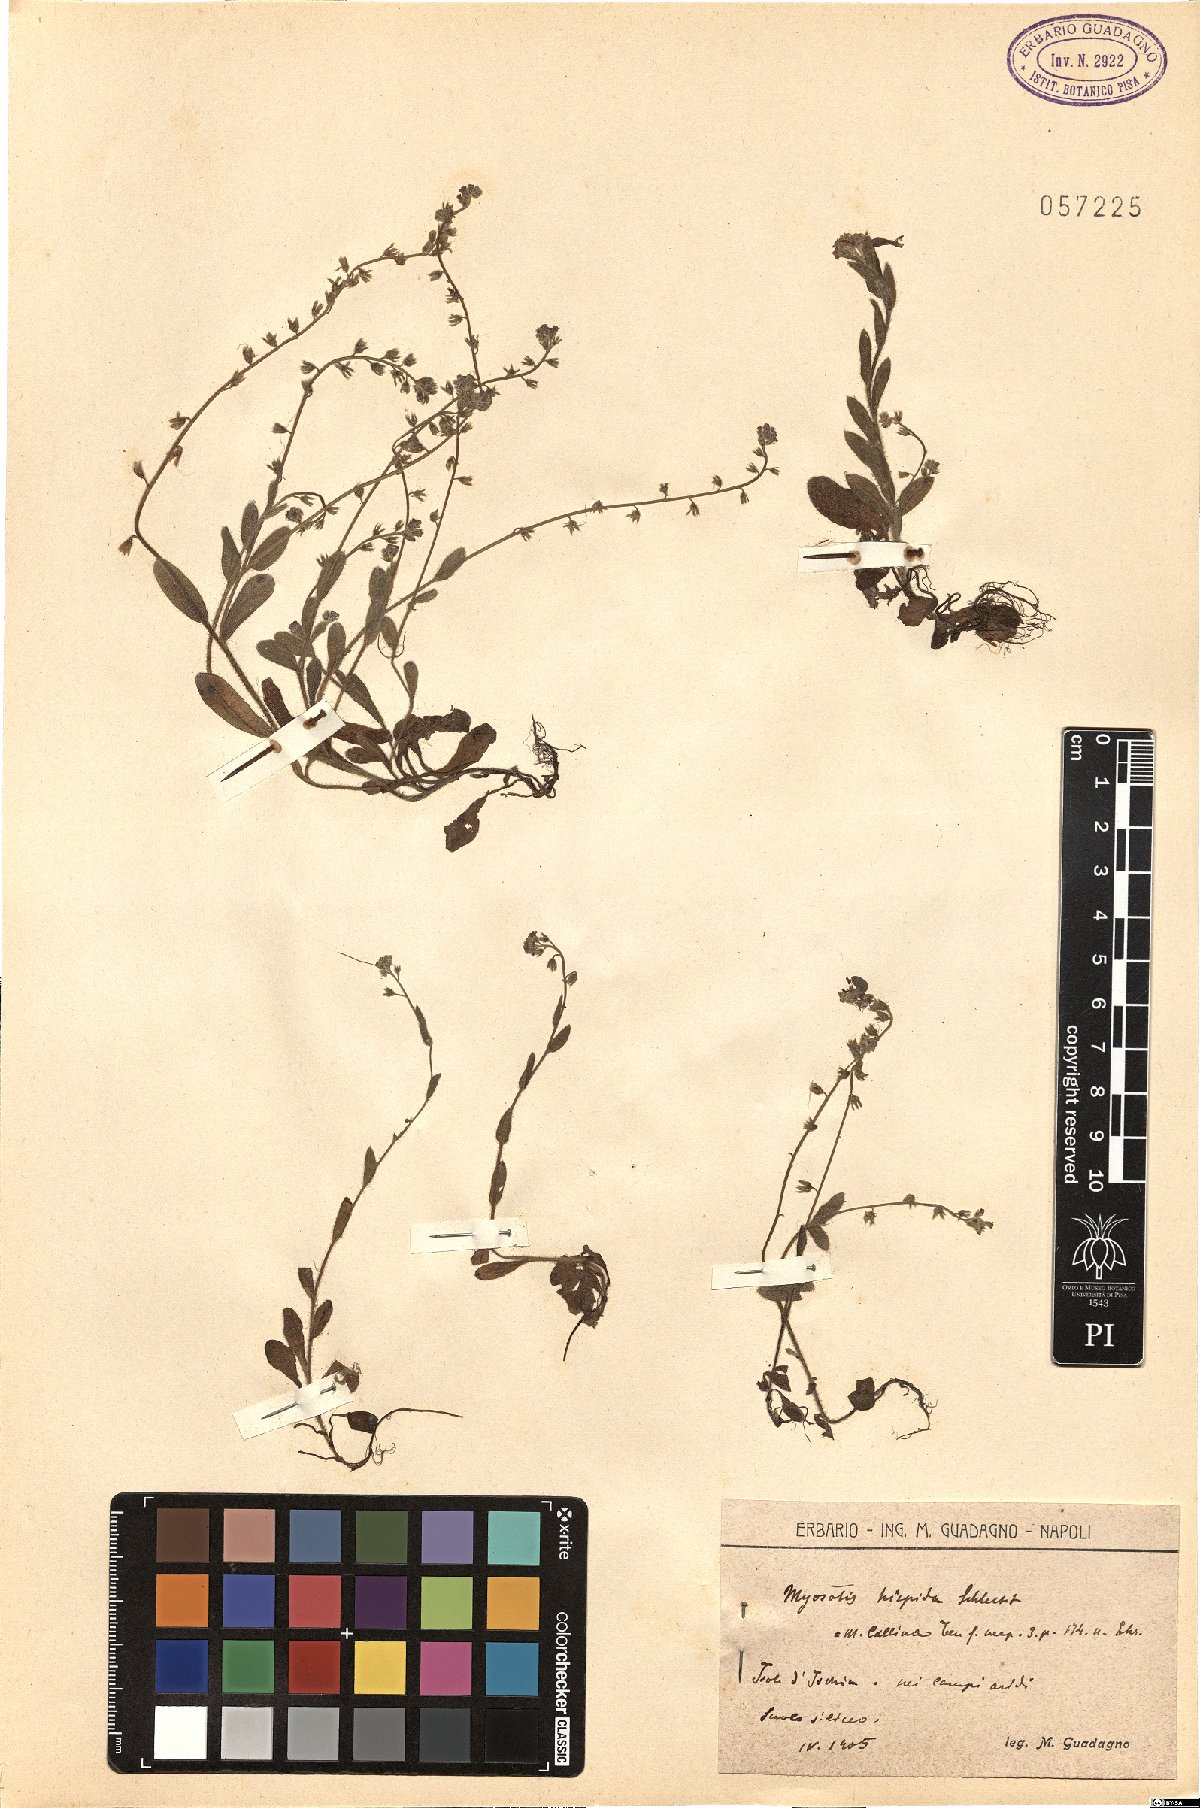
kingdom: Plantae
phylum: Tracheophyta
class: Magnoliopsida
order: Boraginales
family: Boraginaceae
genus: Myosotis
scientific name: Myosotis ramosissima
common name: Early forget-me-not
